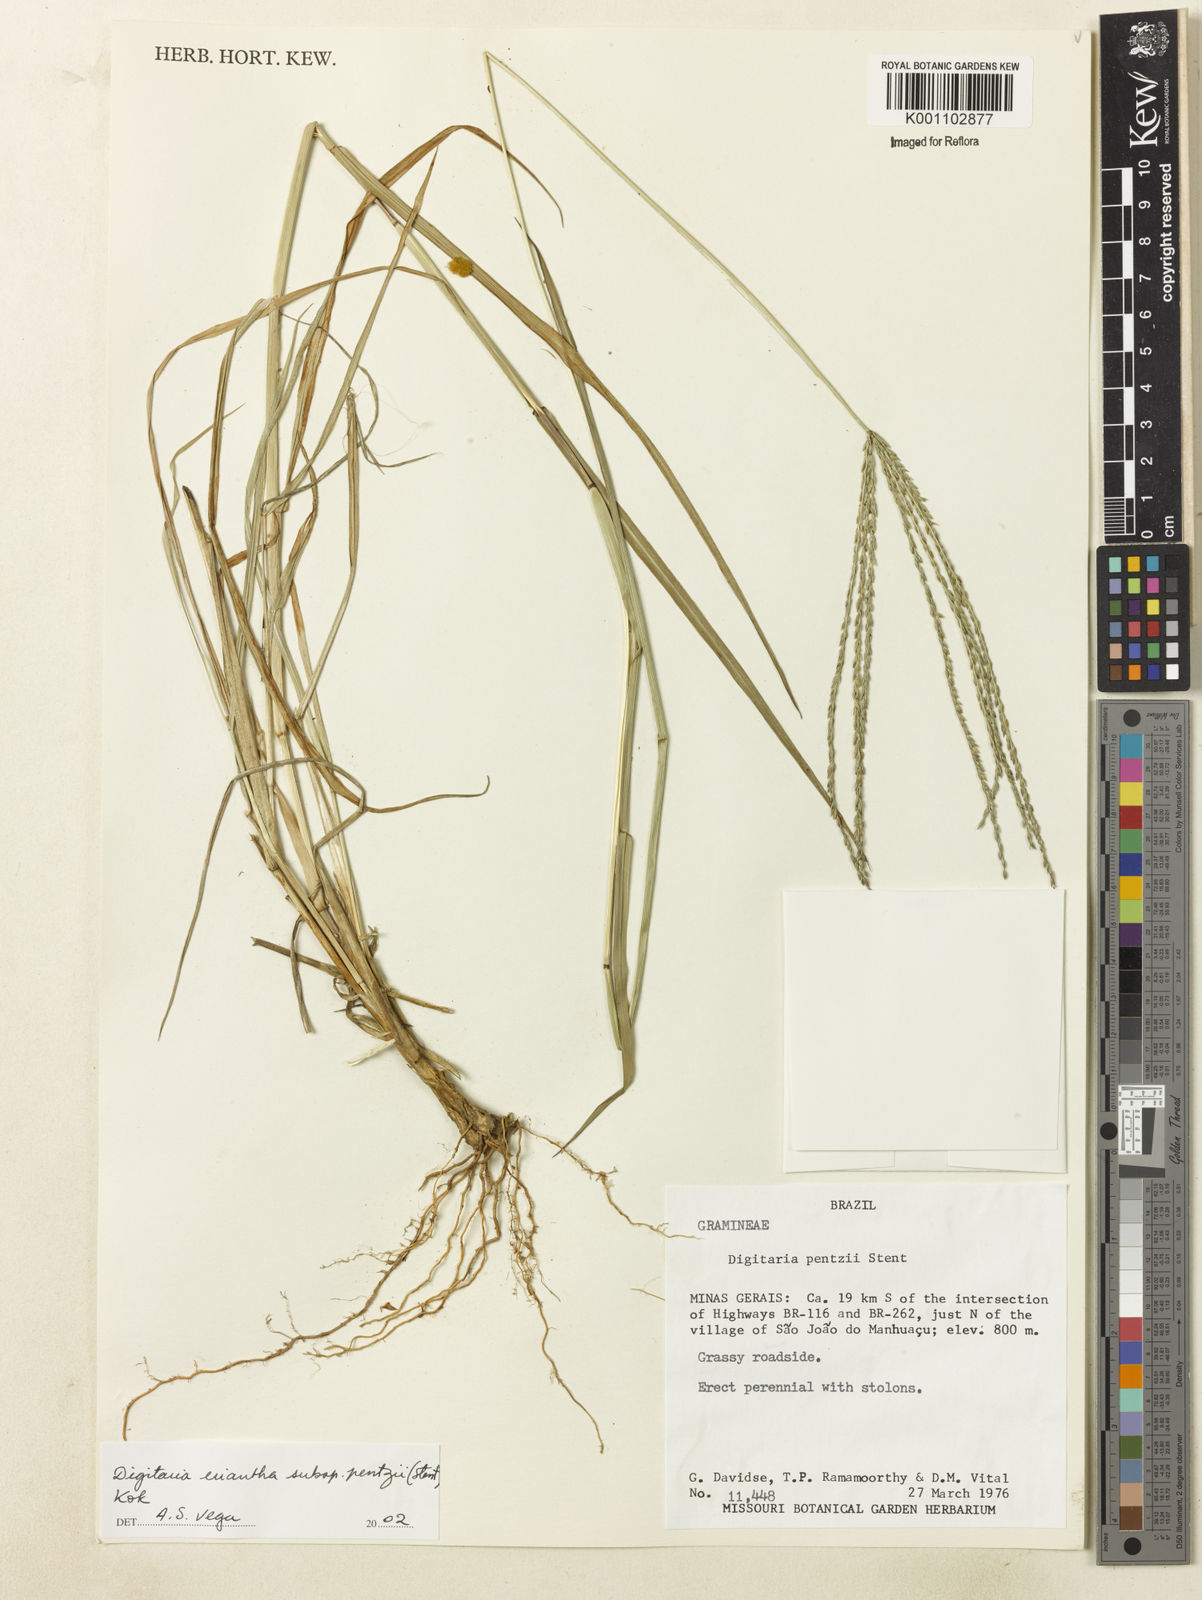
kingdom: Plantae
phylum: Tracheophyta
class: Liliopsida
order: Poales
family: Poaceae
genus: Digitaria
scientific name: Digitaria eriantha
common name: Digitgrass
